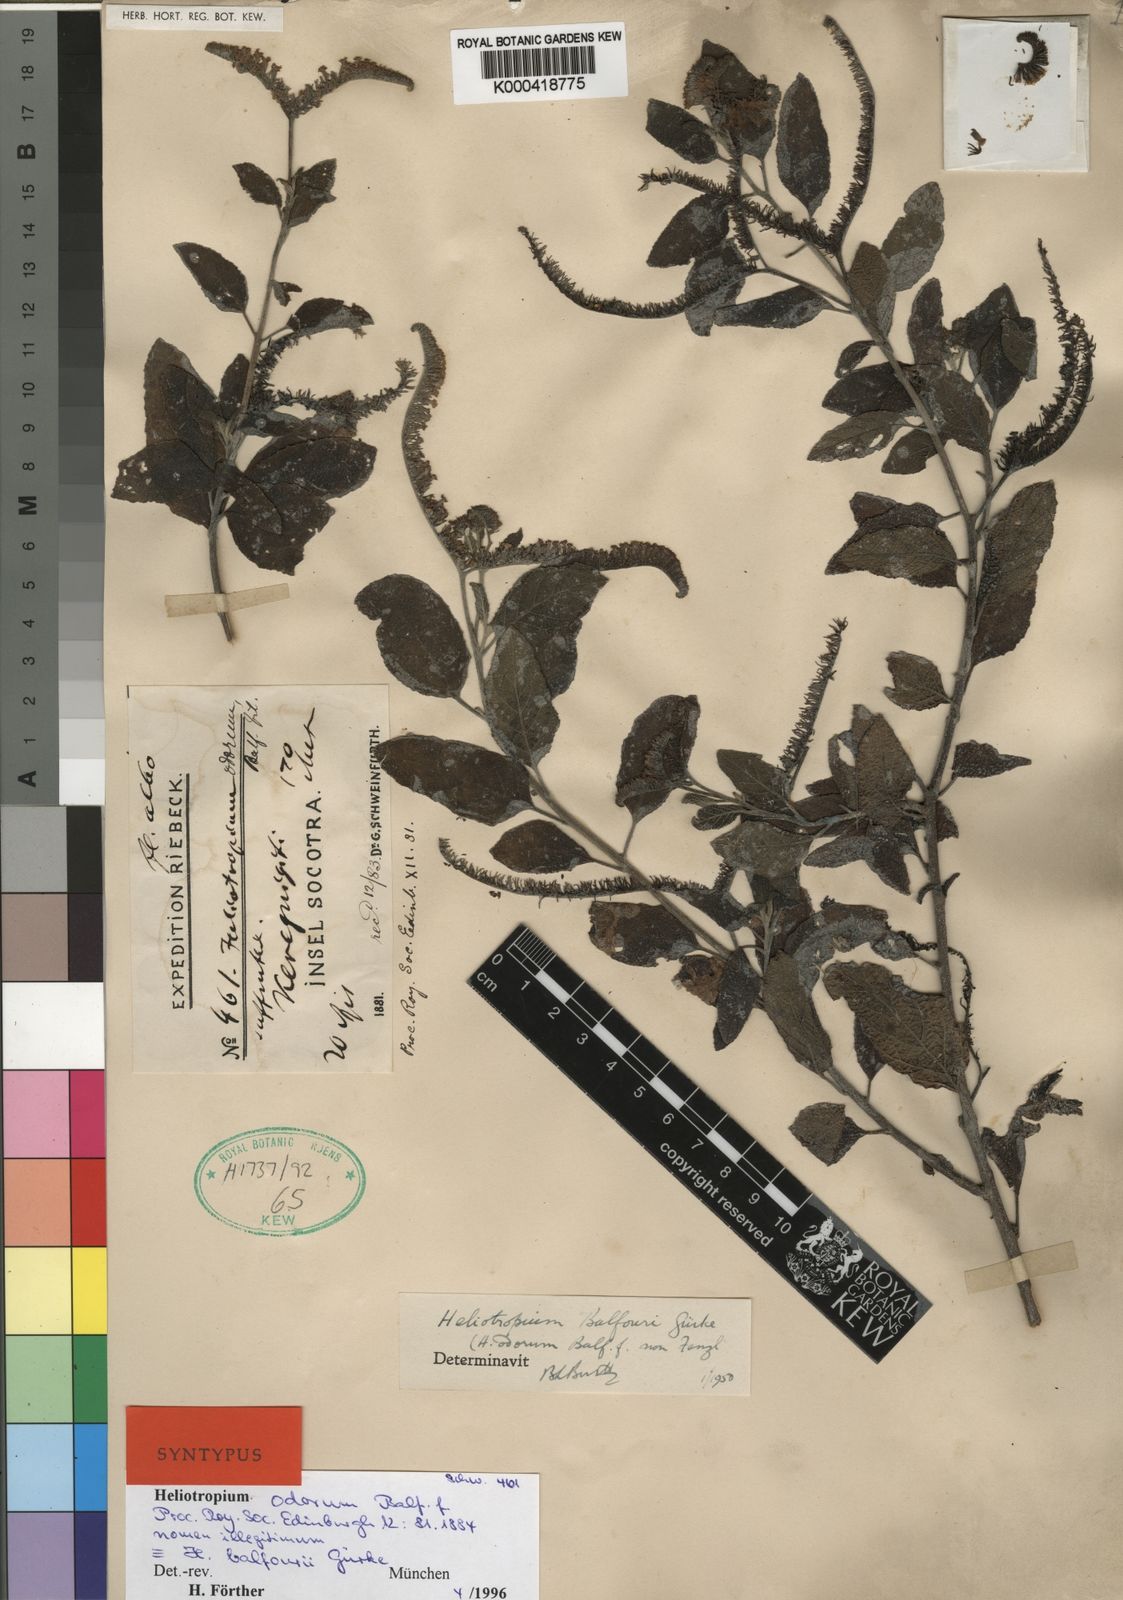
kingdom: Plantae
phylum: Tracheophyta
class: Magnoliopsida
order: Boraginales
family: Heliotropiaceae
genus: Heliotropium
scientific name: Heliotropium balfourii
